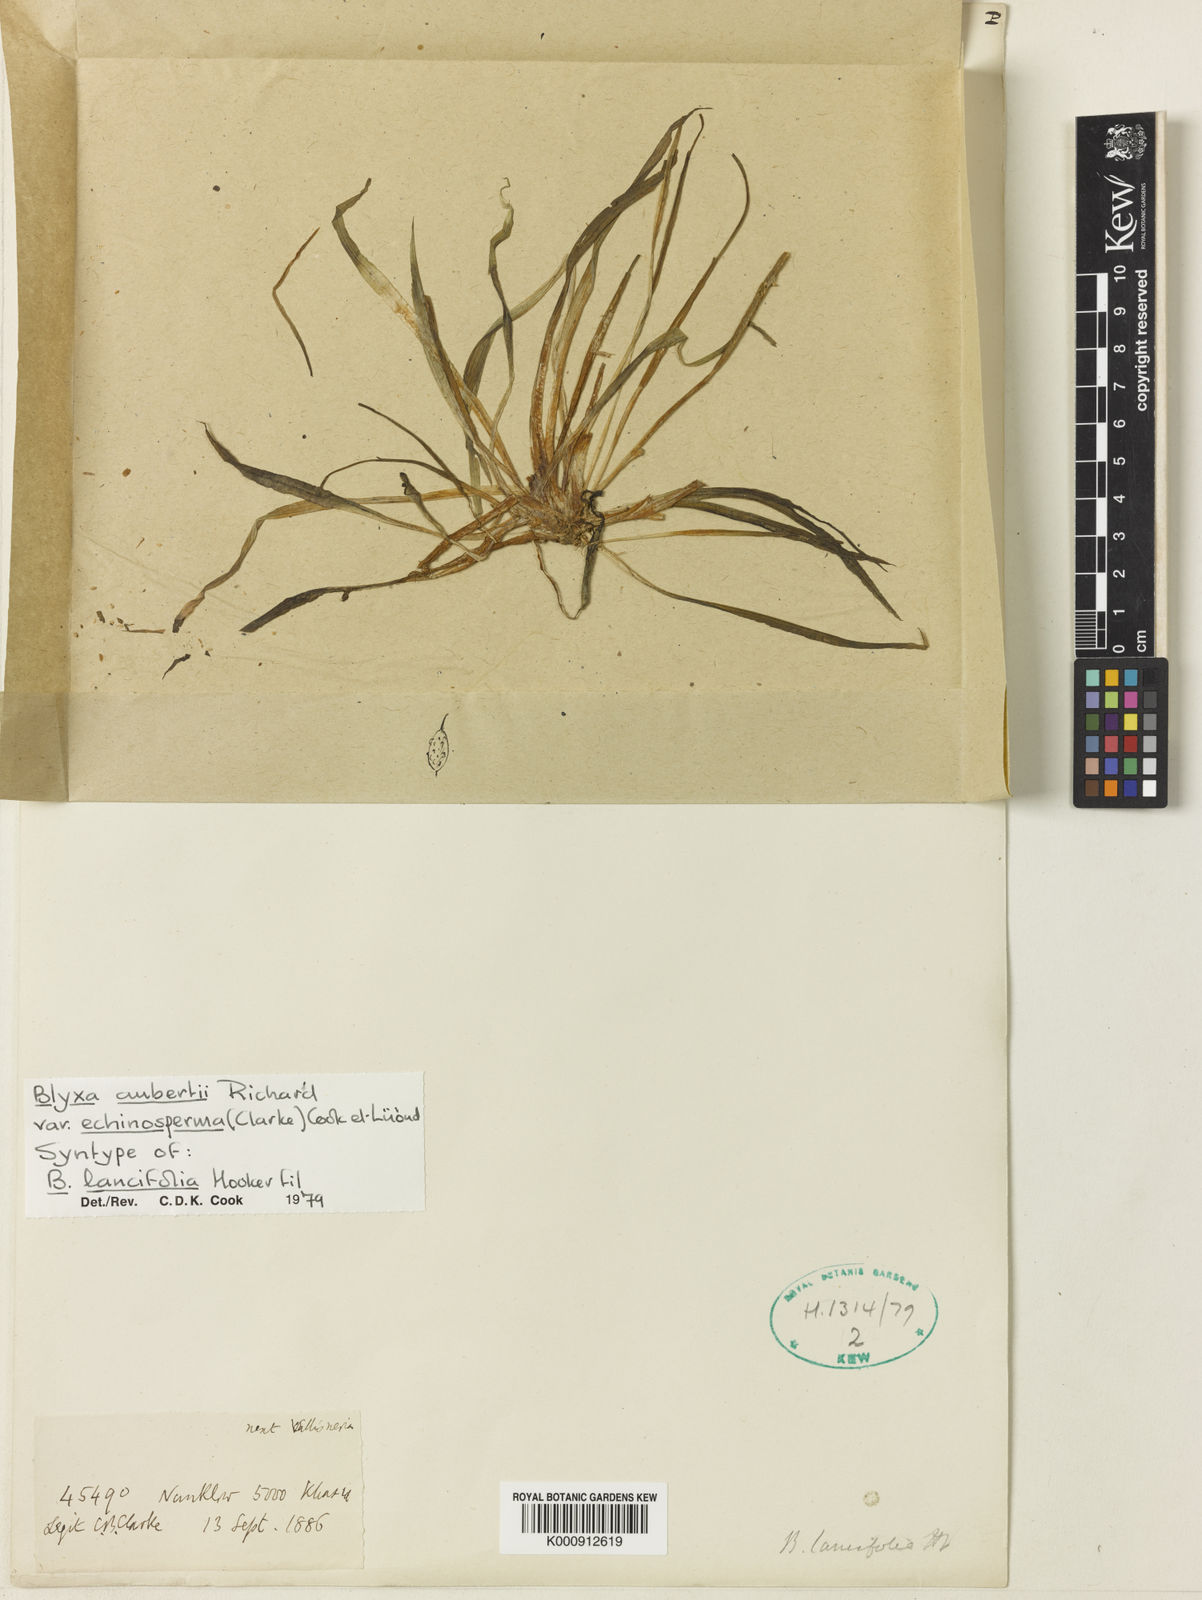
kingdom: Plantae
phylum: Tracheophyta
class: Liliopsida
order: Alismatales
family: Hydrocharitaceae
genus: Blyxa
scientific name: Blyxa echinosperma
